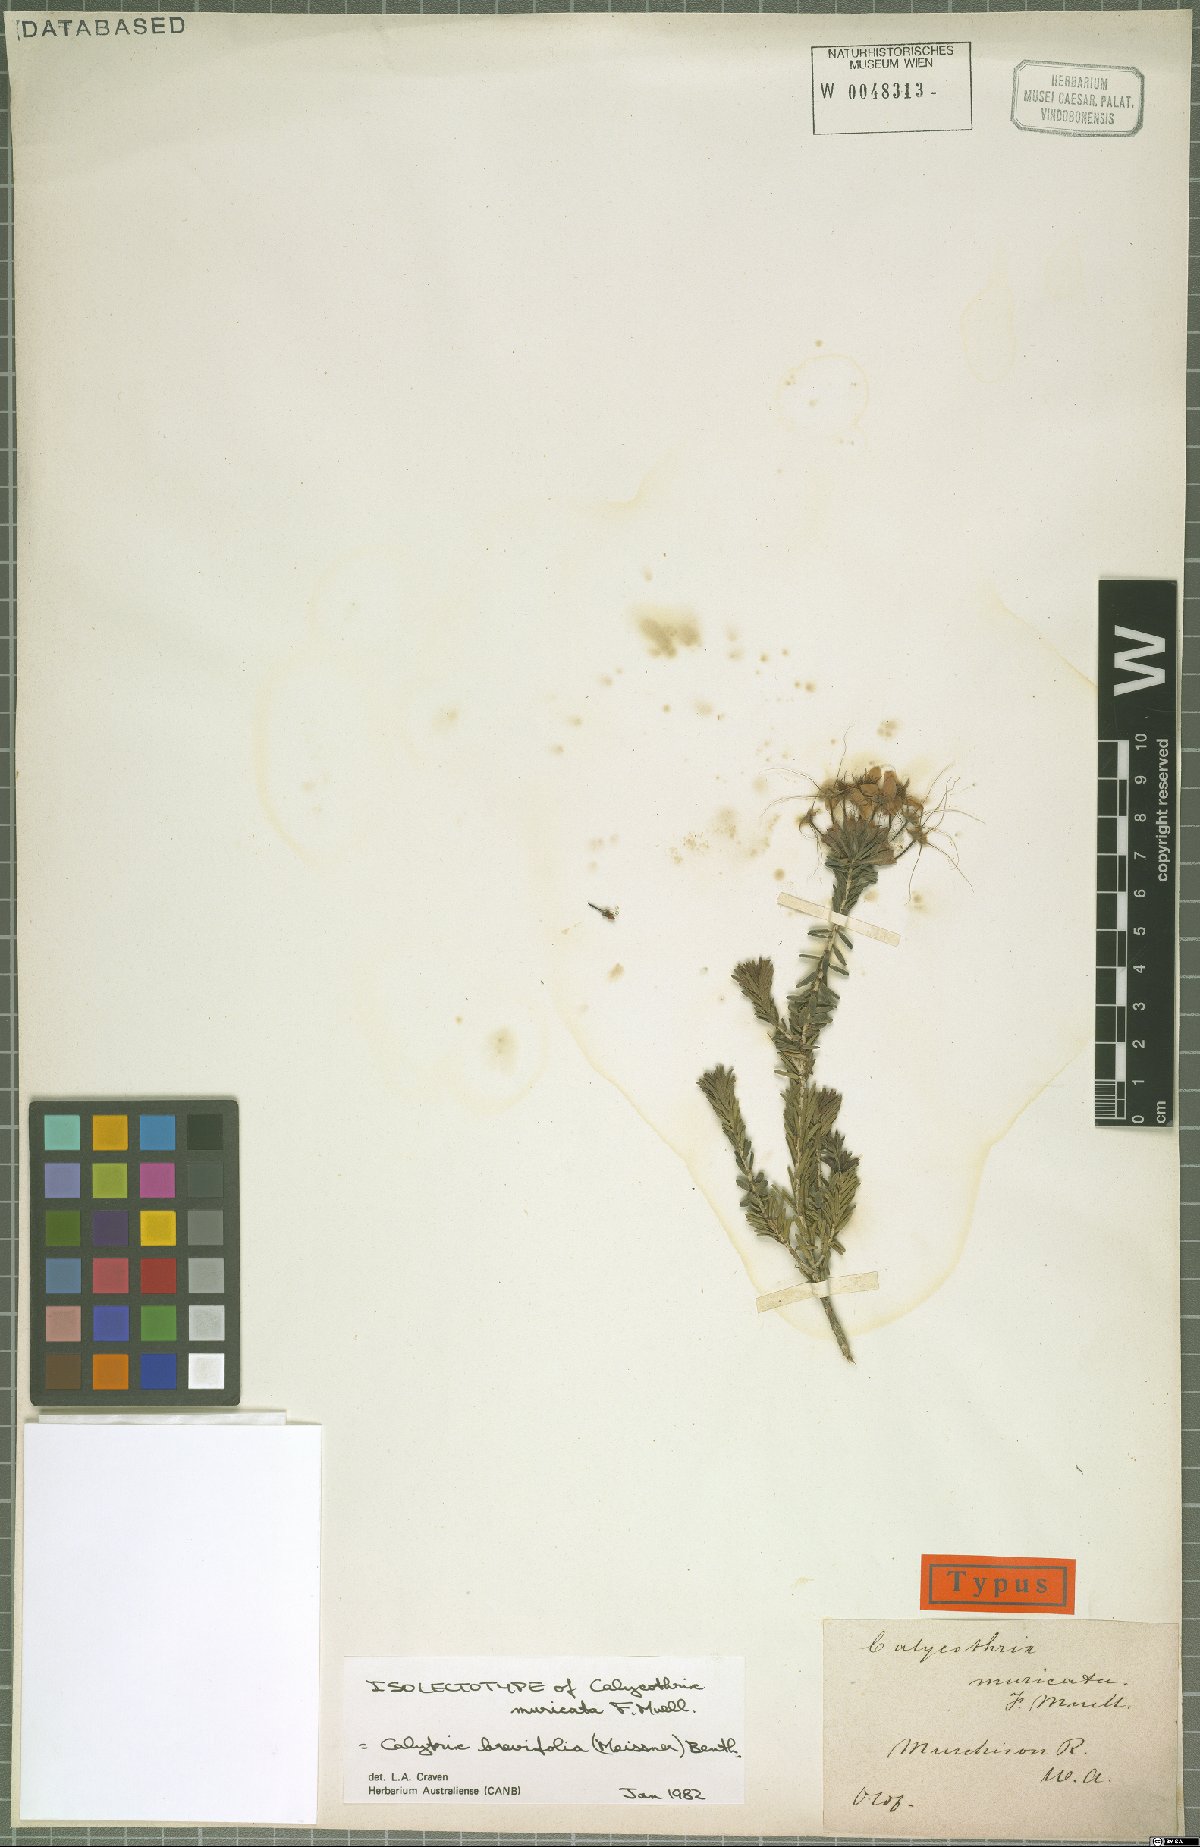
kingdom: Plantae
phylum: Tracheophyta
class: Magnoliopsida
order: Myrtales
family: Myrtaceae
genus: Calytrix
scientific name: Calytrix brevifolia
